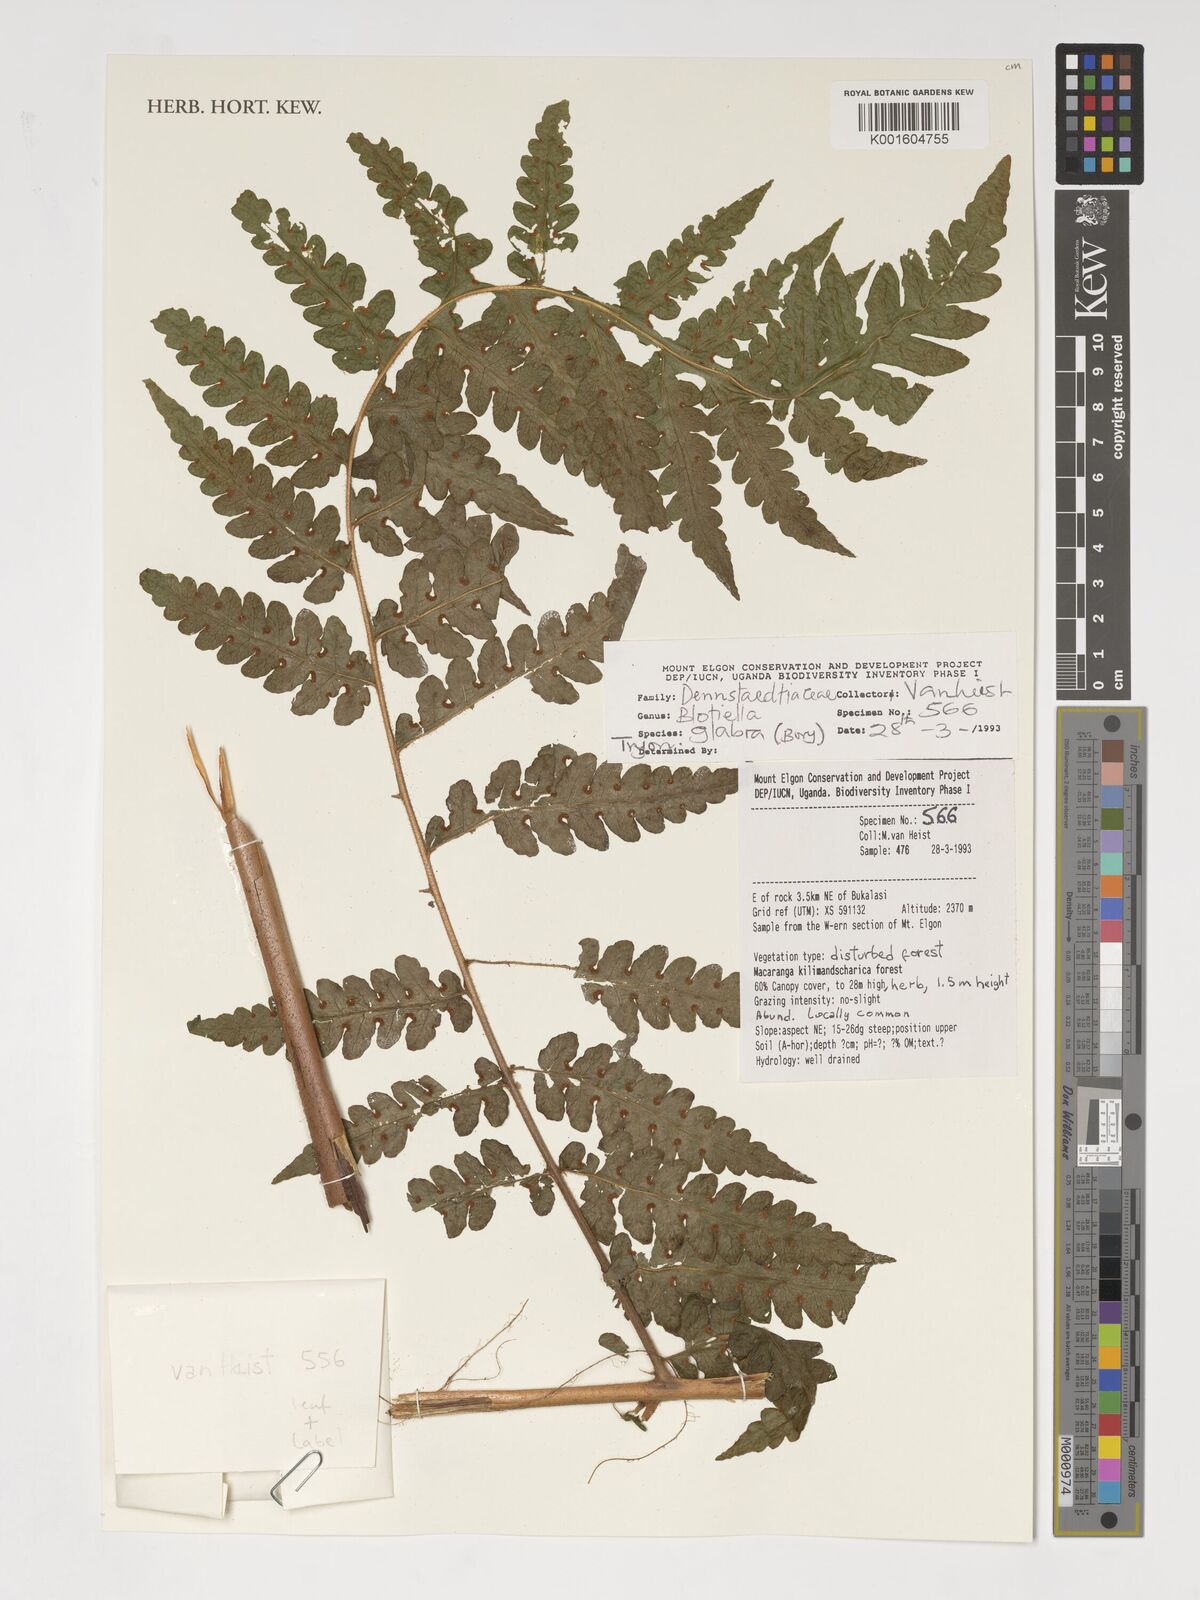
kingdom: Plantae
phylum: Tracheophyta
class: Polypodiopsida
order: Polypodiales
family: Dennstaedtiaceae
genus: Blotiella
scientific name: Blotiella glabra
